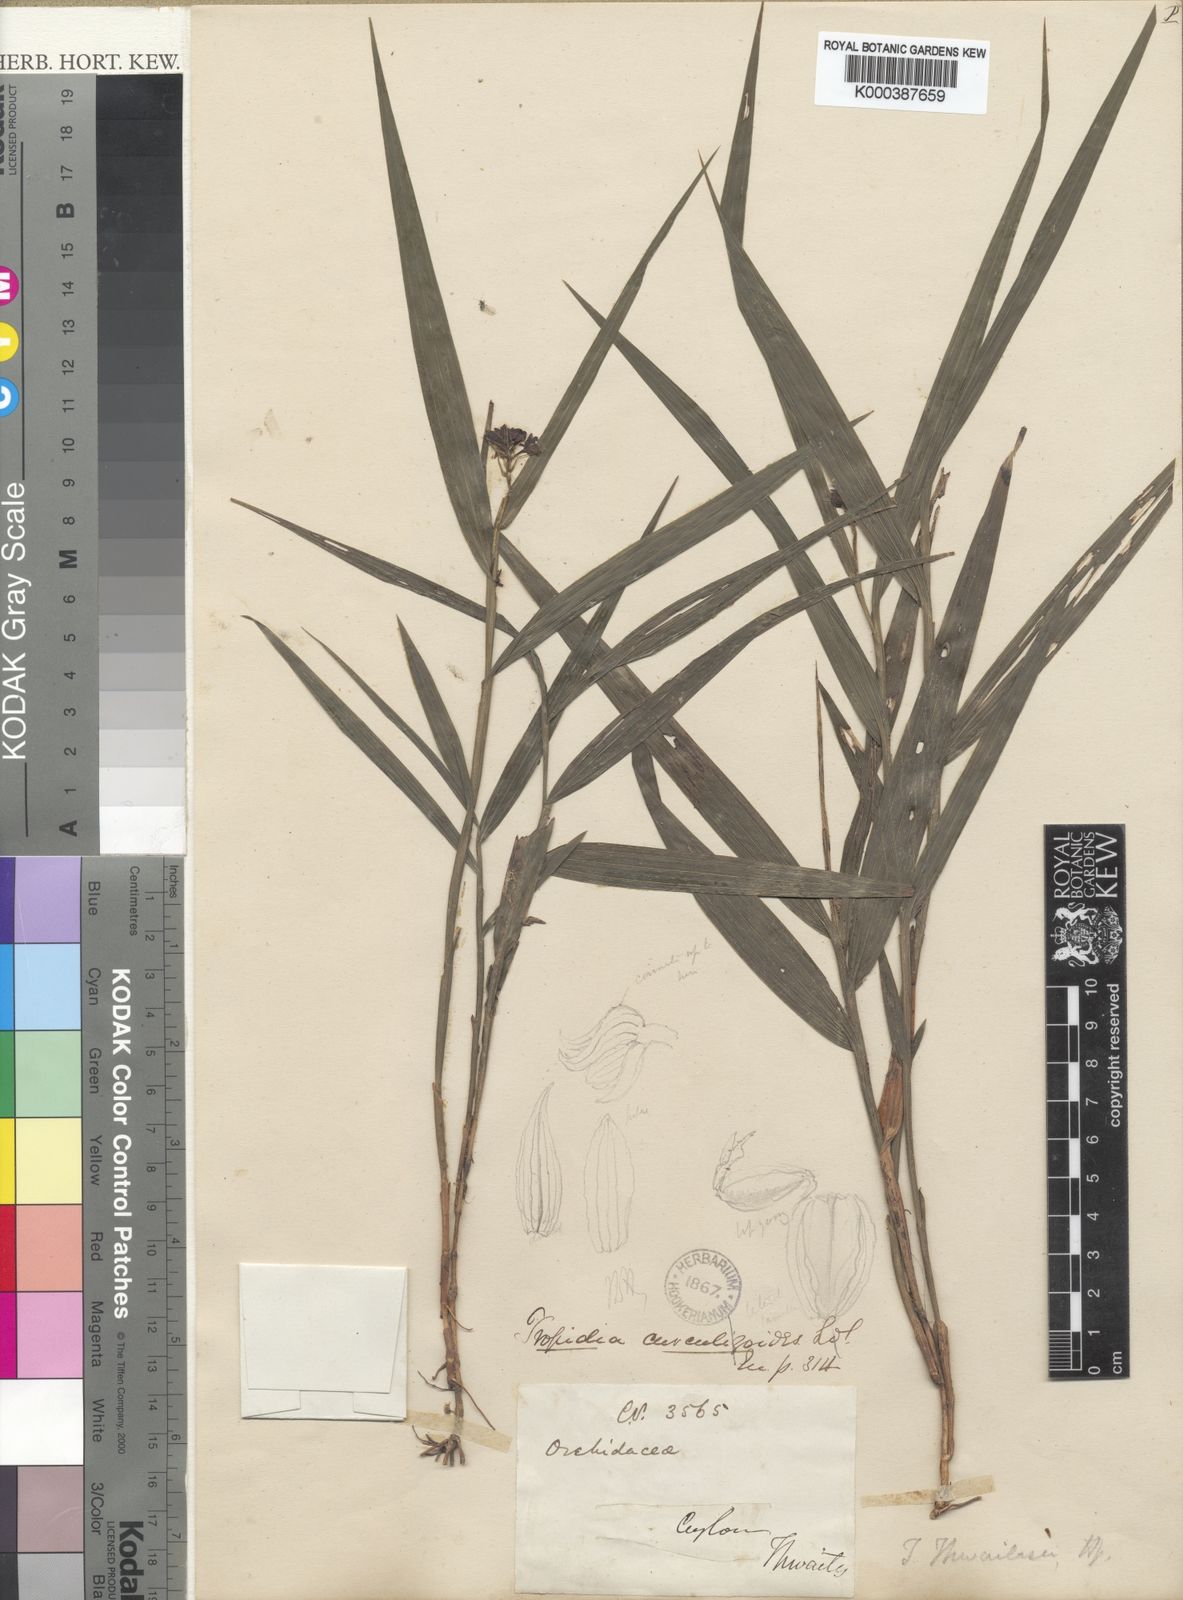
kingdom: Plantae
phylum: Tracheophyta
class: Liliopsida
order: Asparagales
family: Orchidaceae
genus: Tropidia
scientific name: Tropidia bambusifolia
